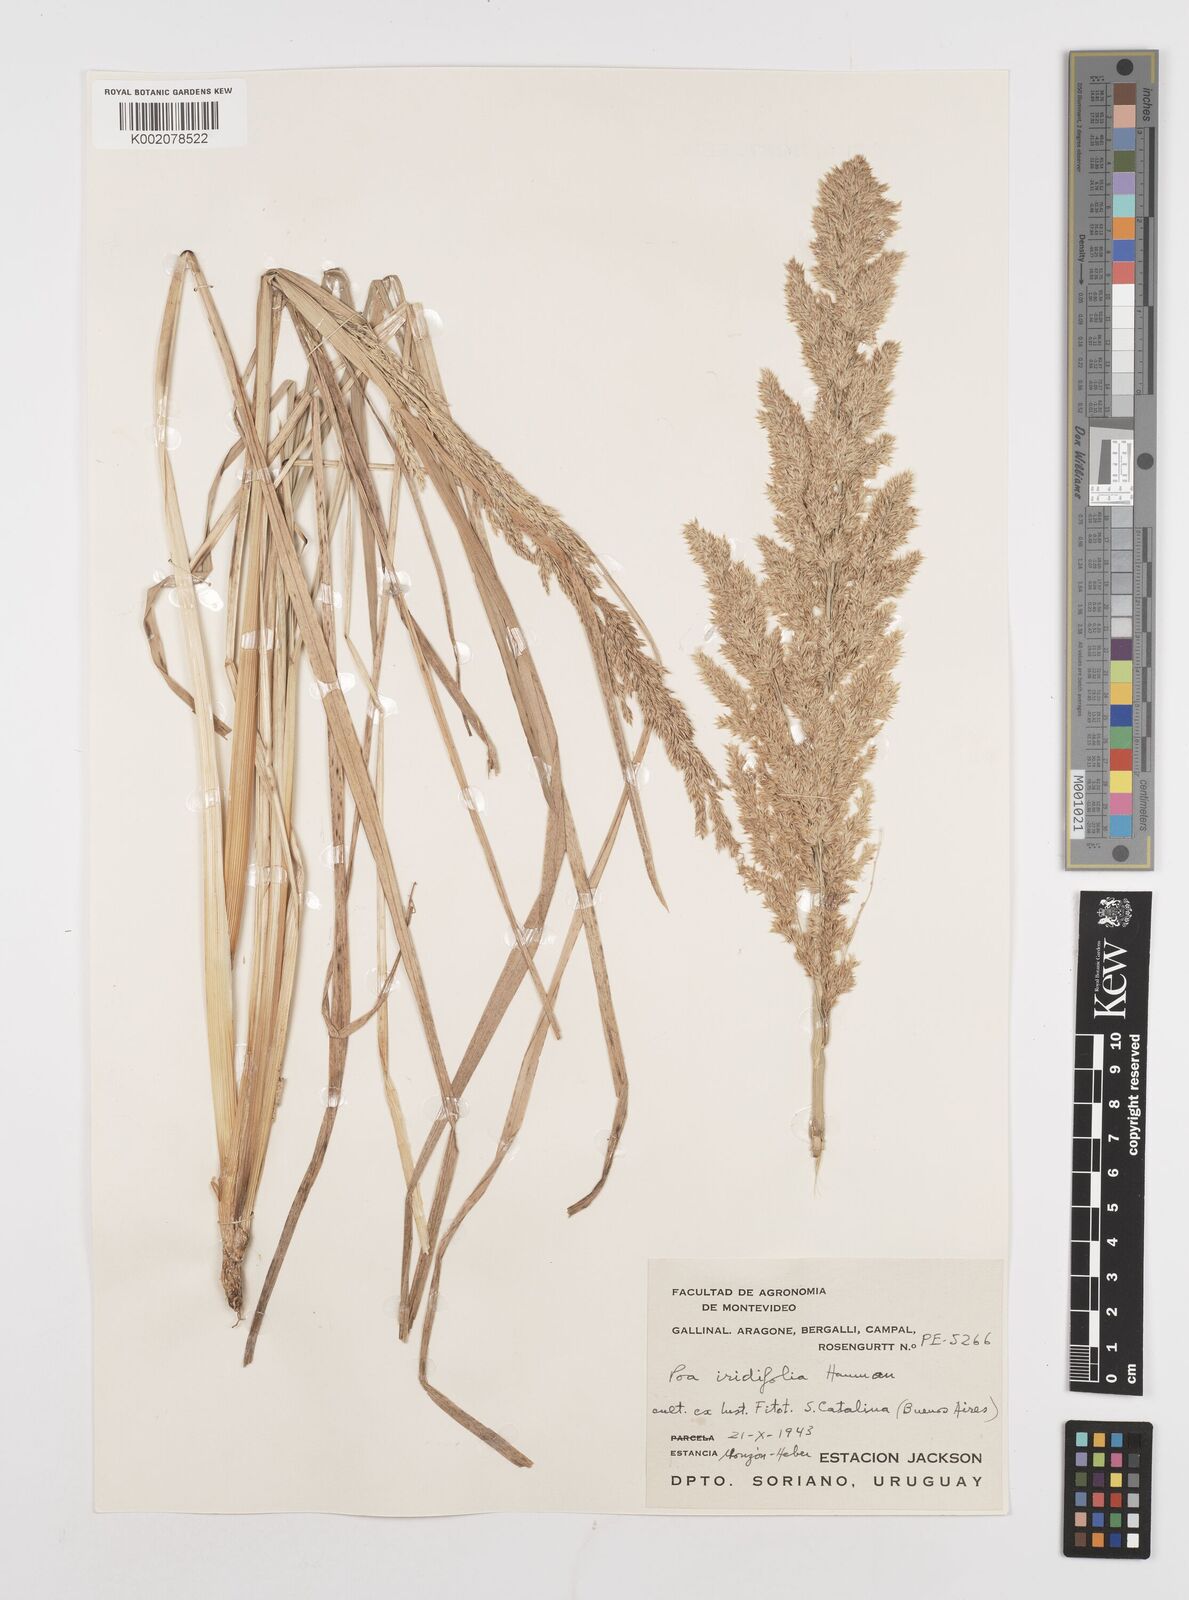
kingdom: Plantae
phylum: Tracheophyta
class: Liliopsida
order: Poales
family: Poaceae
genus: Poa
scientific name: Poa iridifolia
